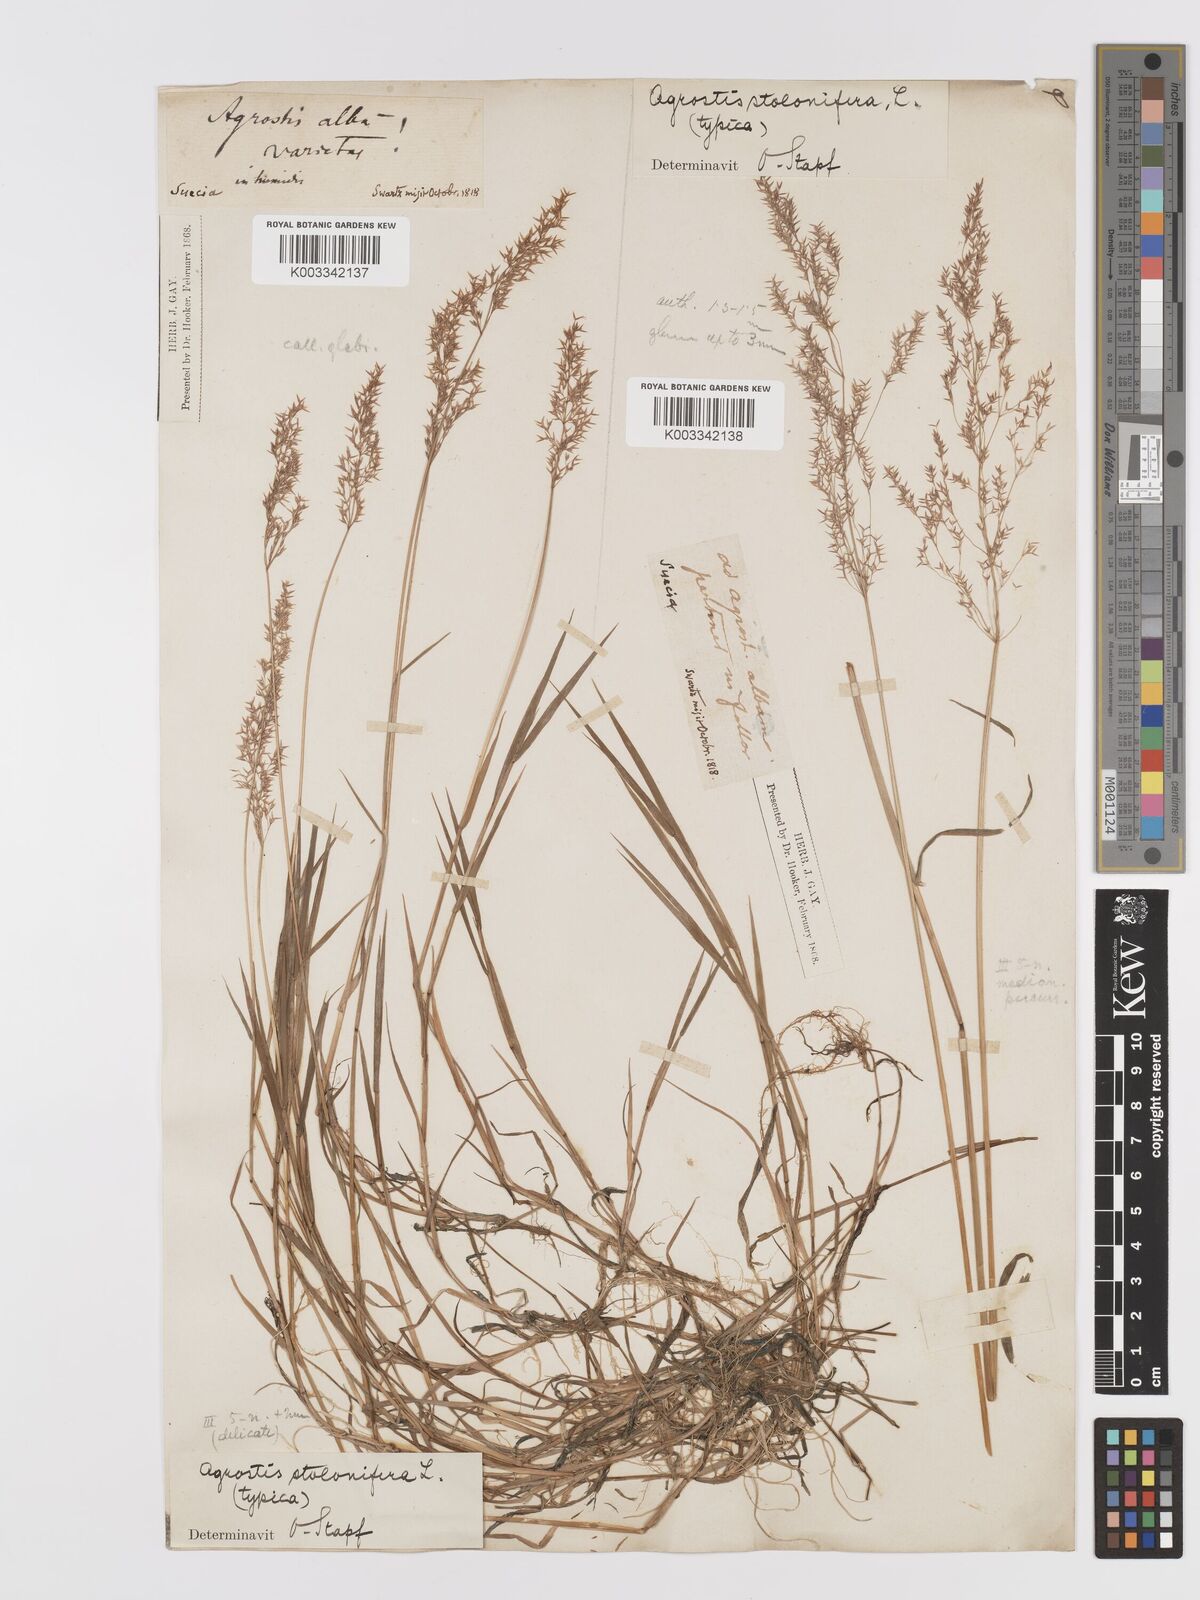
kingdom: Plantae
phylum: Tracheophyta
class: Liliopsida
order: Poales
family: Poaceae
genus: Agrostis
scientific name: Agrostis stolonifera
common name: Creeping bentgrass
